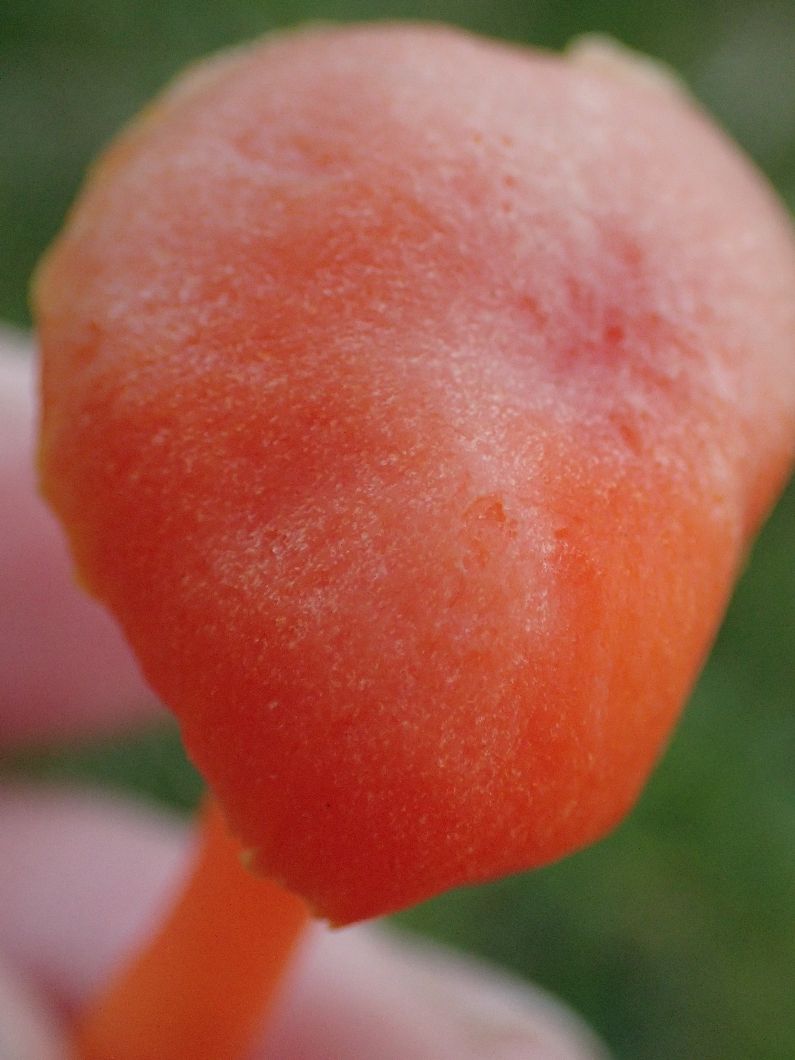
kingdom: Fungi
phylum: Basidiomycota
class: Agaricomycetes
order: Agaricales
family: Hygrophoraceae
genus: Hygrocybe
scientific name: Hygrocybe reidii
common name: honning-vokshat
